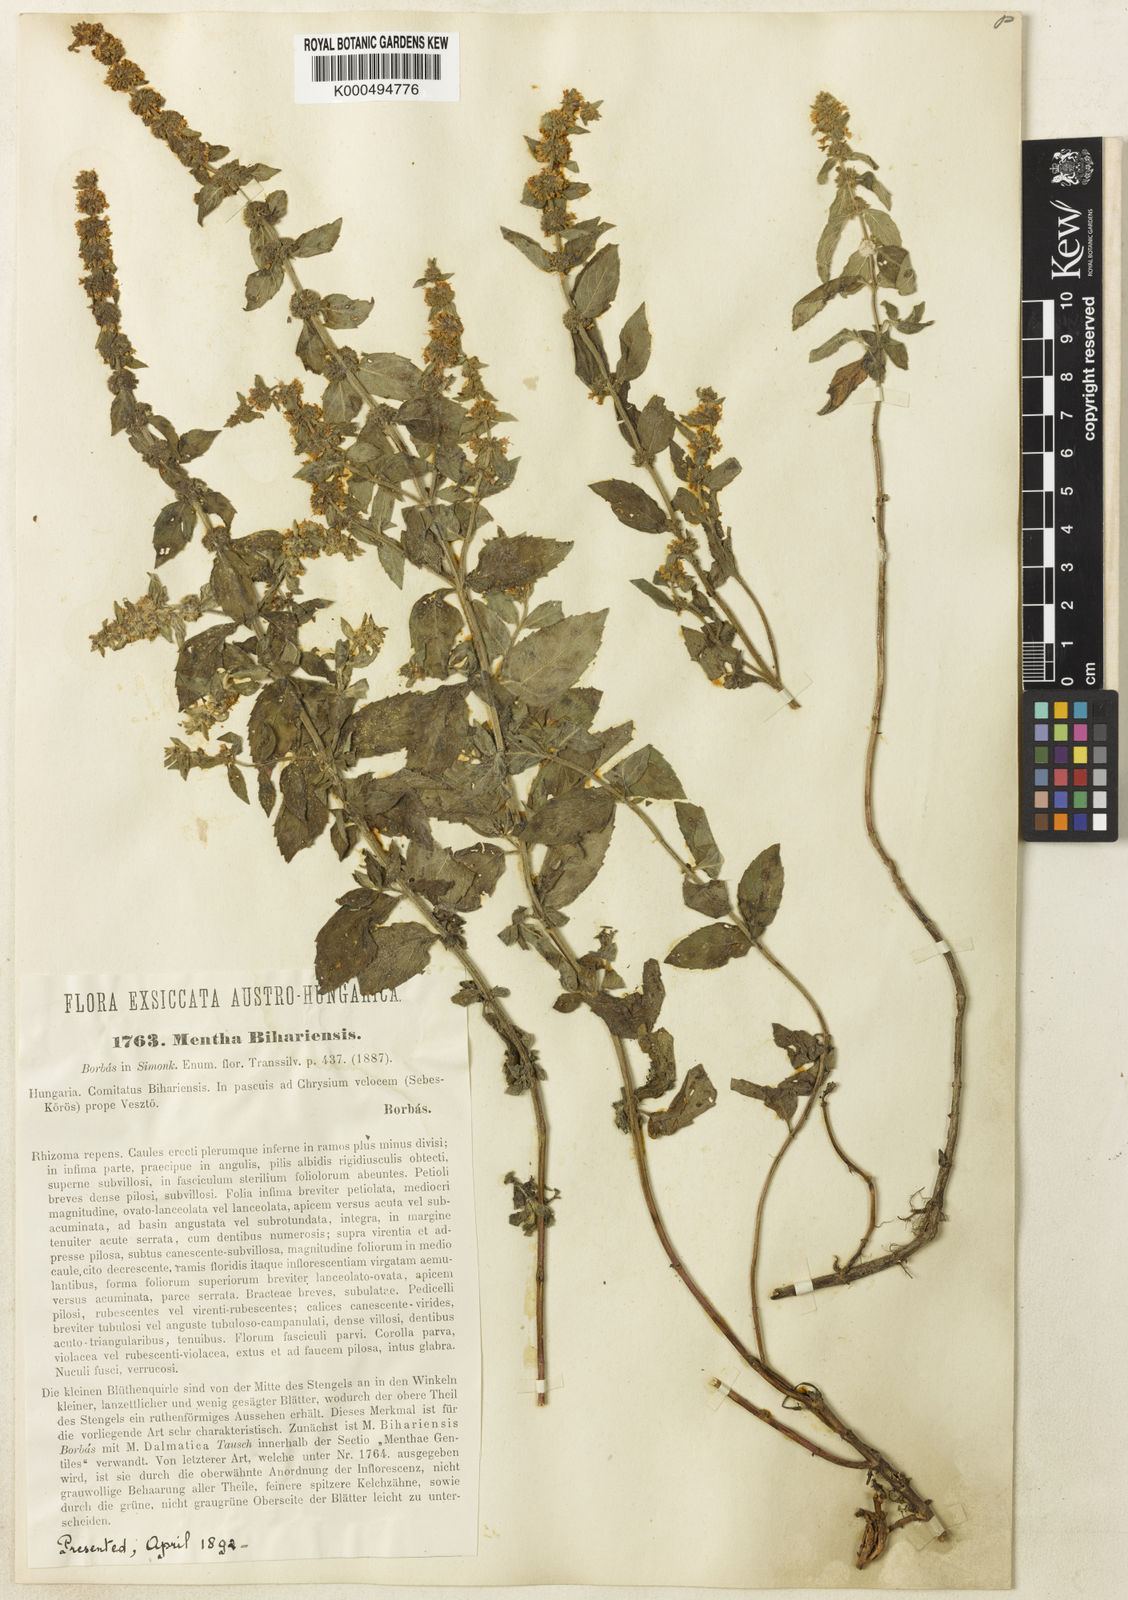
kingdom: Plantae
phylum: Tracheophyta
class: Magnoliopsida
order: Lamiales
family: Lamiaceae
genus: Mentha
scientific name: Mentha dalmatica
